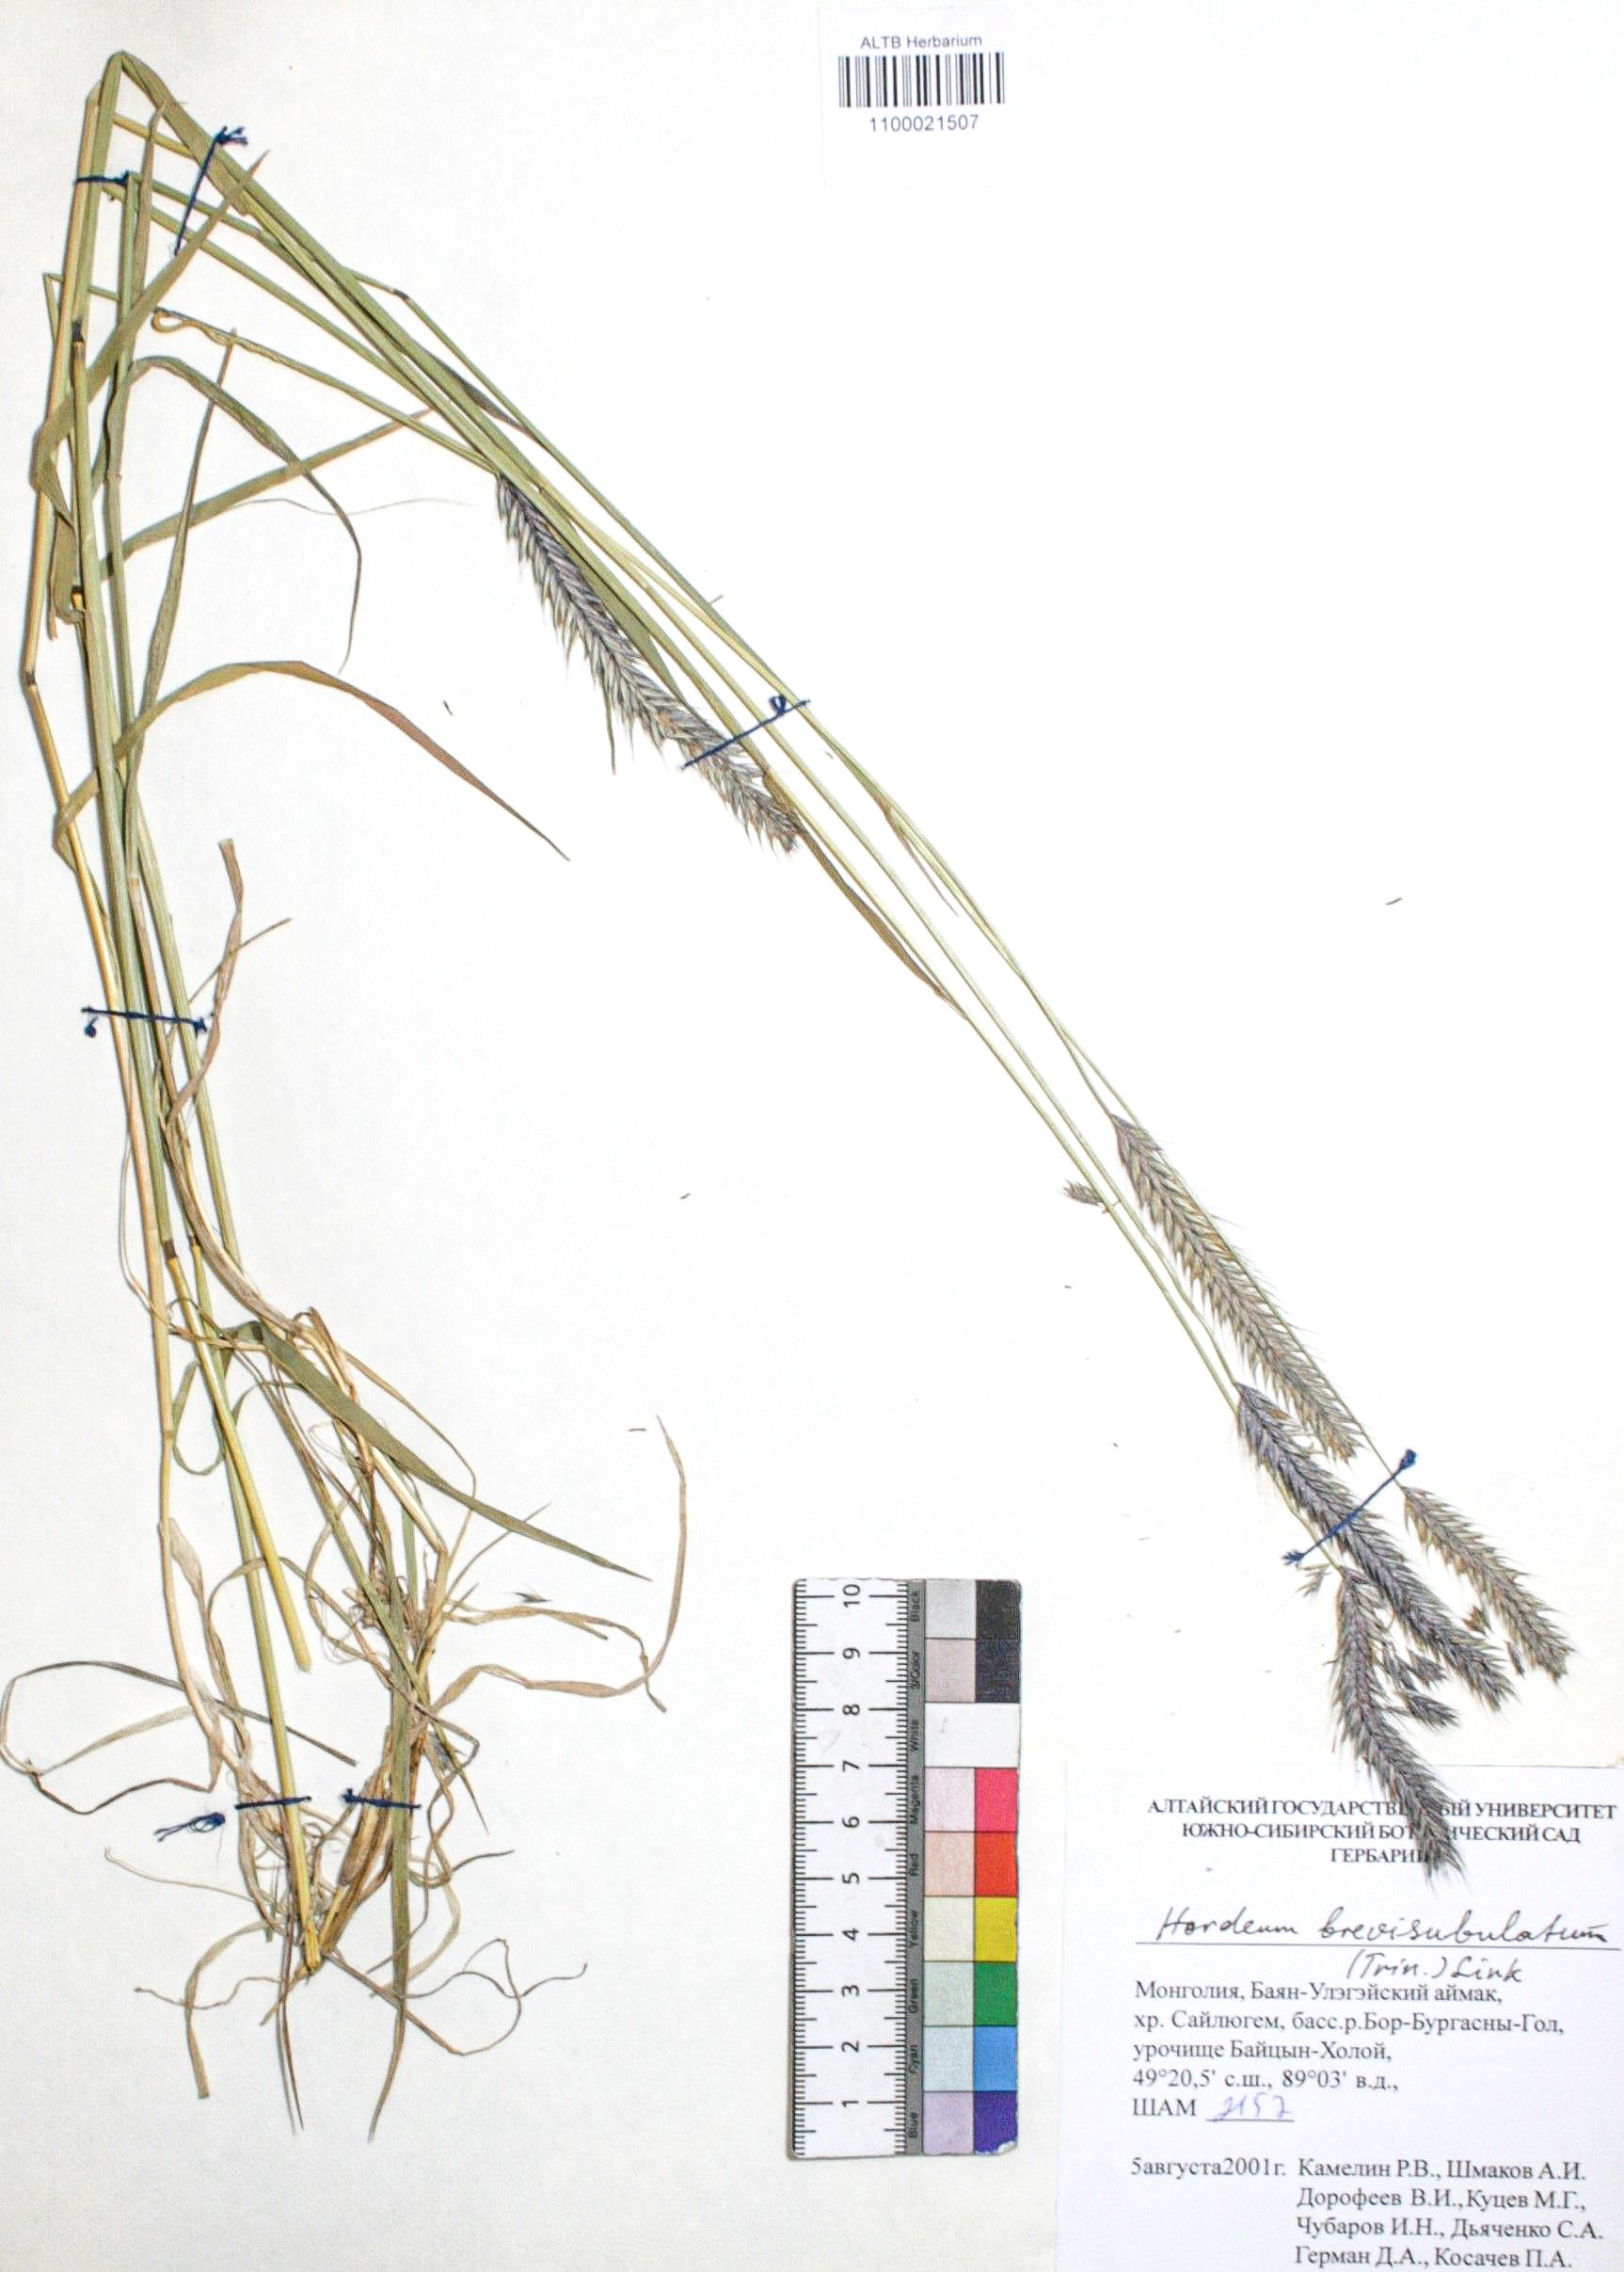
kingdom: Plantae
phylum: Tracheophyta
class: Liliopsida
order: Poales
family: Poaceae
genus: Hordeum
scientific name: Hordeum brevisubulatum
